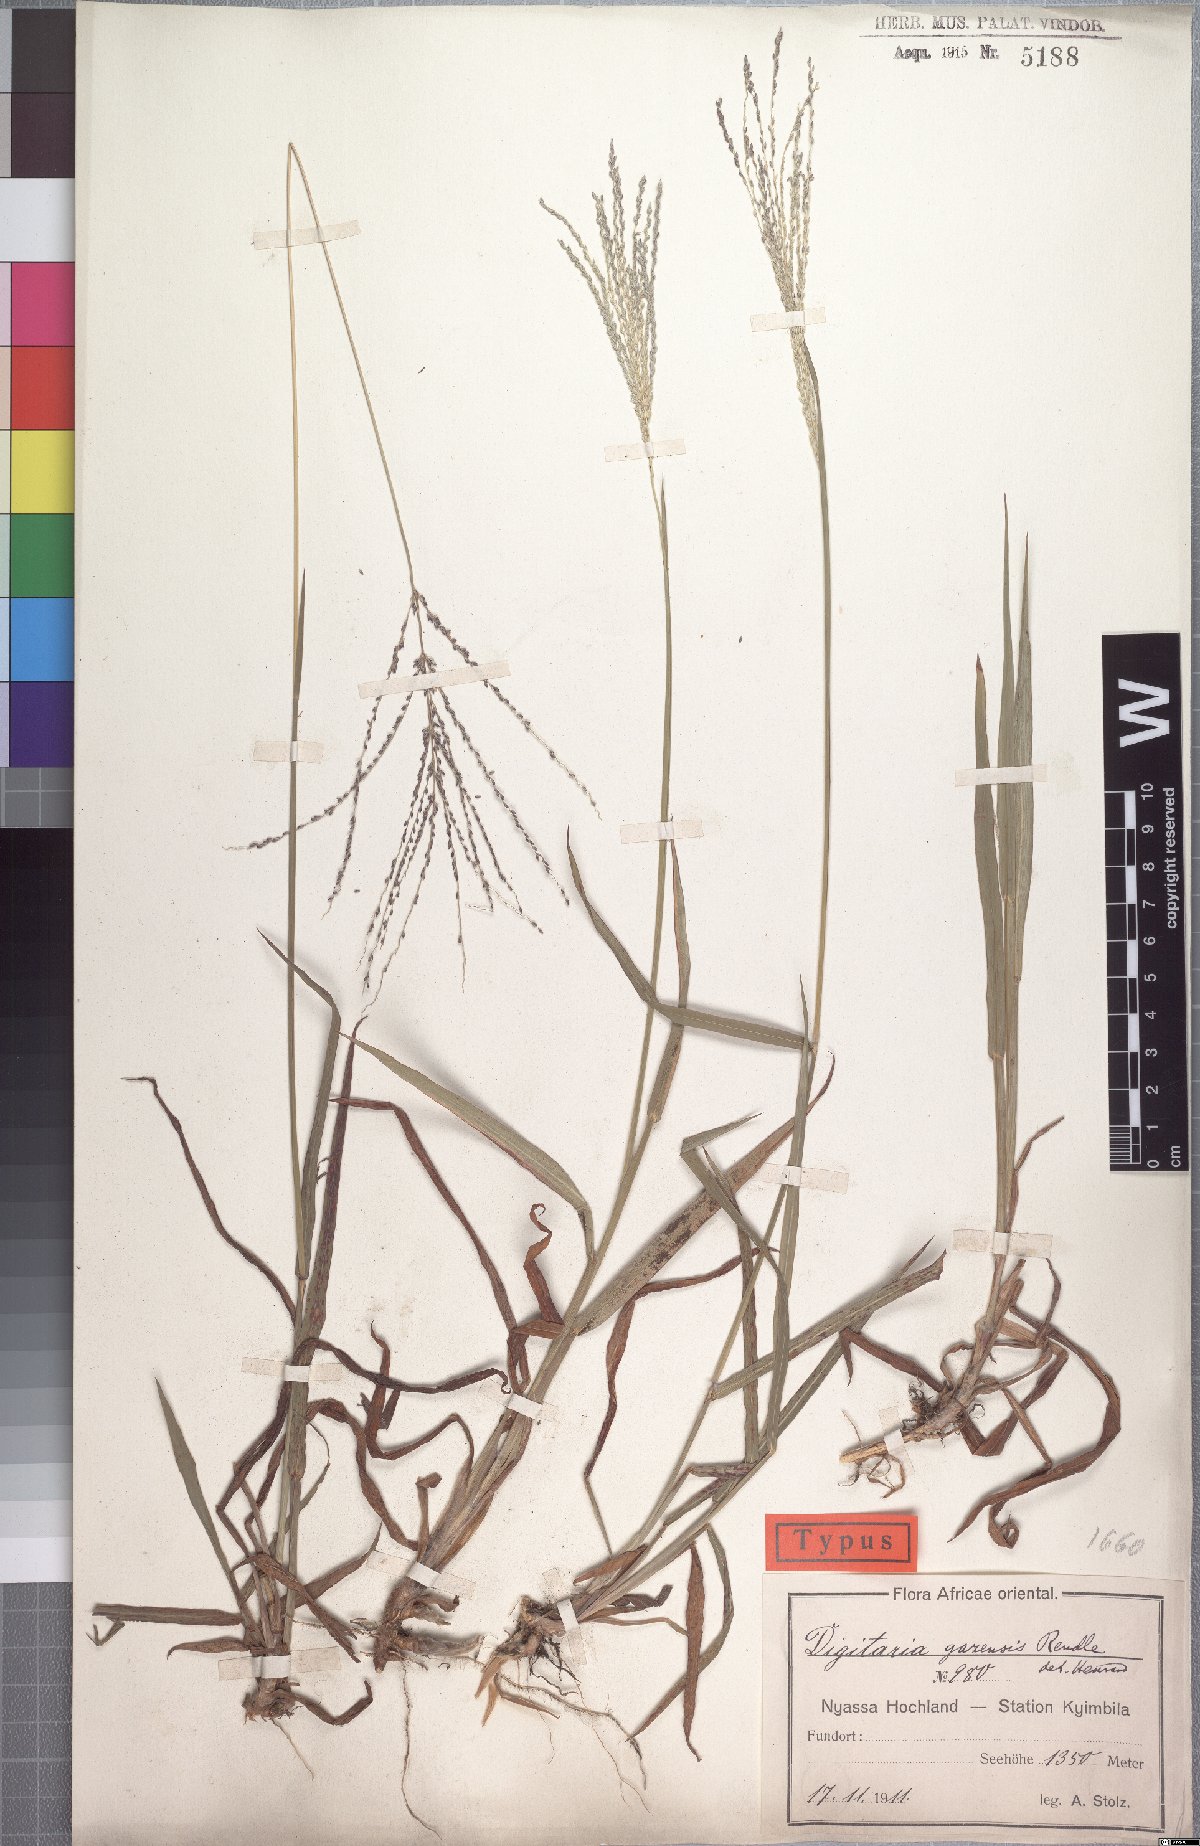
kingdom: Plantae
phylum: Tracheophyta
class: Liliopsida
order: Poales
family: Poaceae
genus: Digitaria
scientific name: Digitaria gazensis
